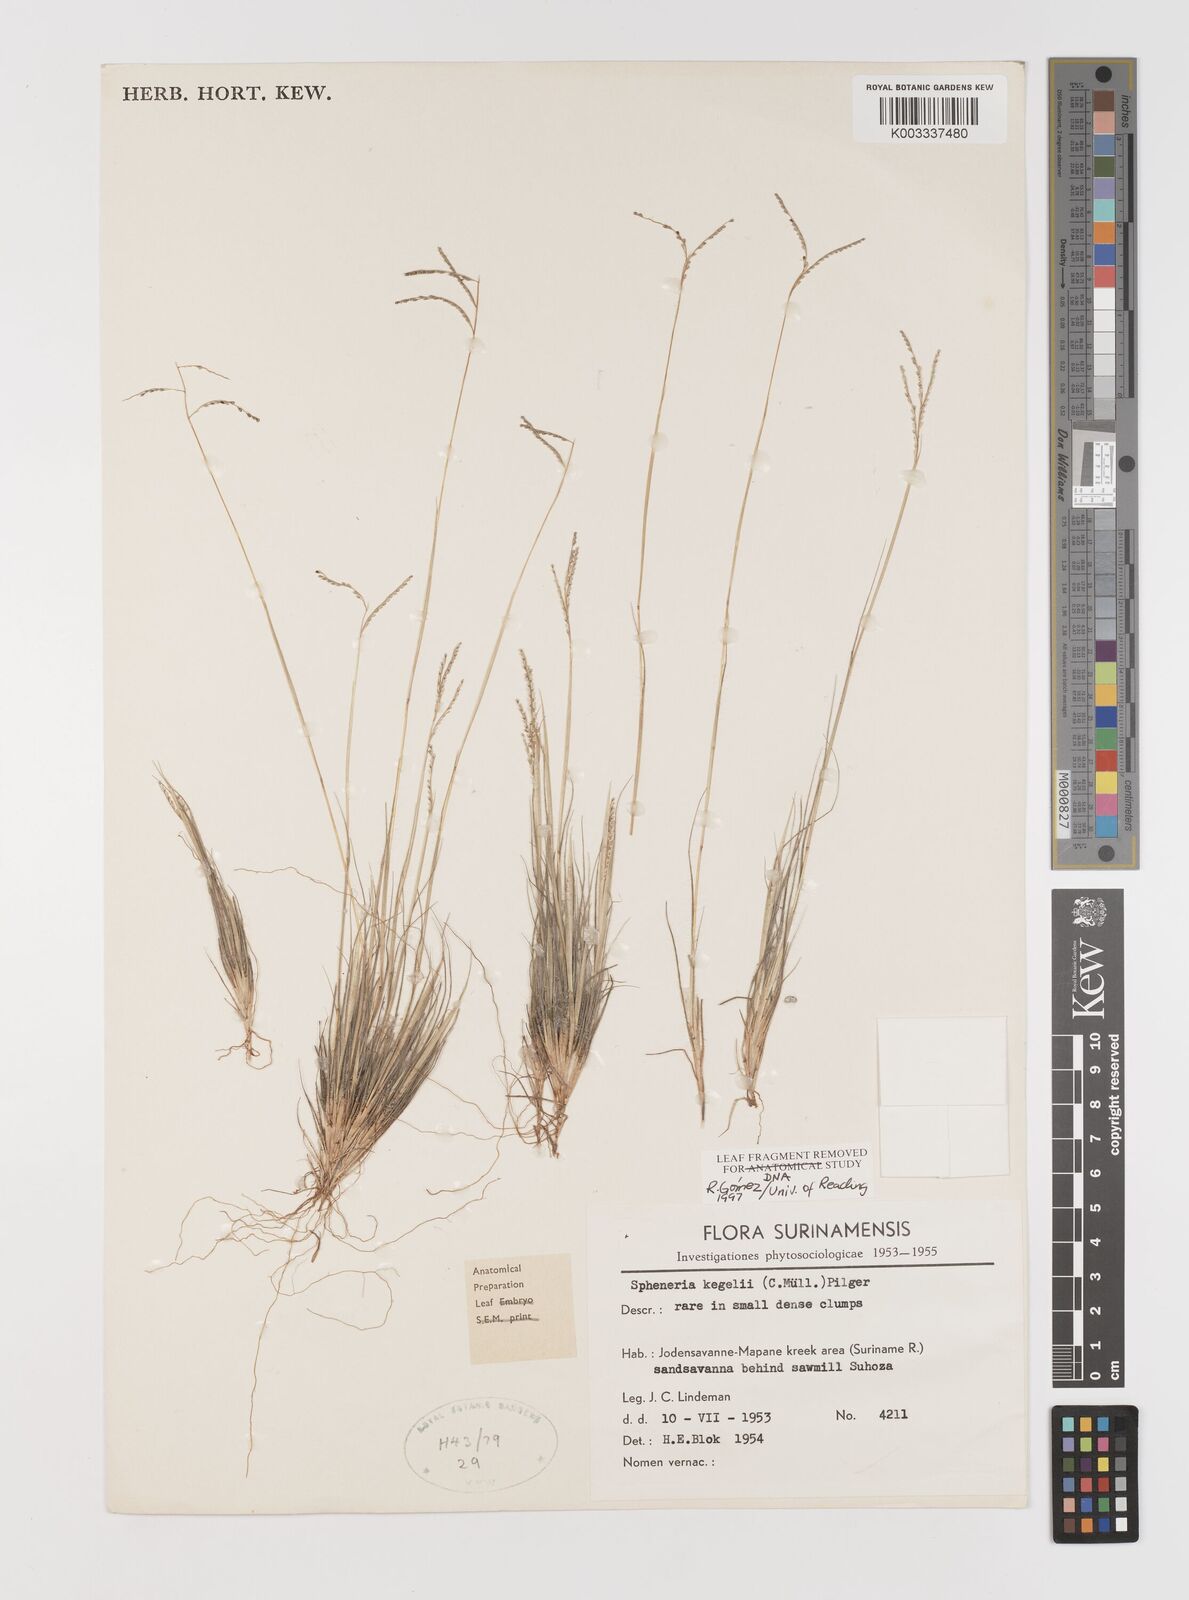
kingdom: Plantae
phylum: Tracheophyta
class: Liliopsida
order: Poales
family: Poaceae
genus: Spheneria
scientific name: Spheneria kegelii
